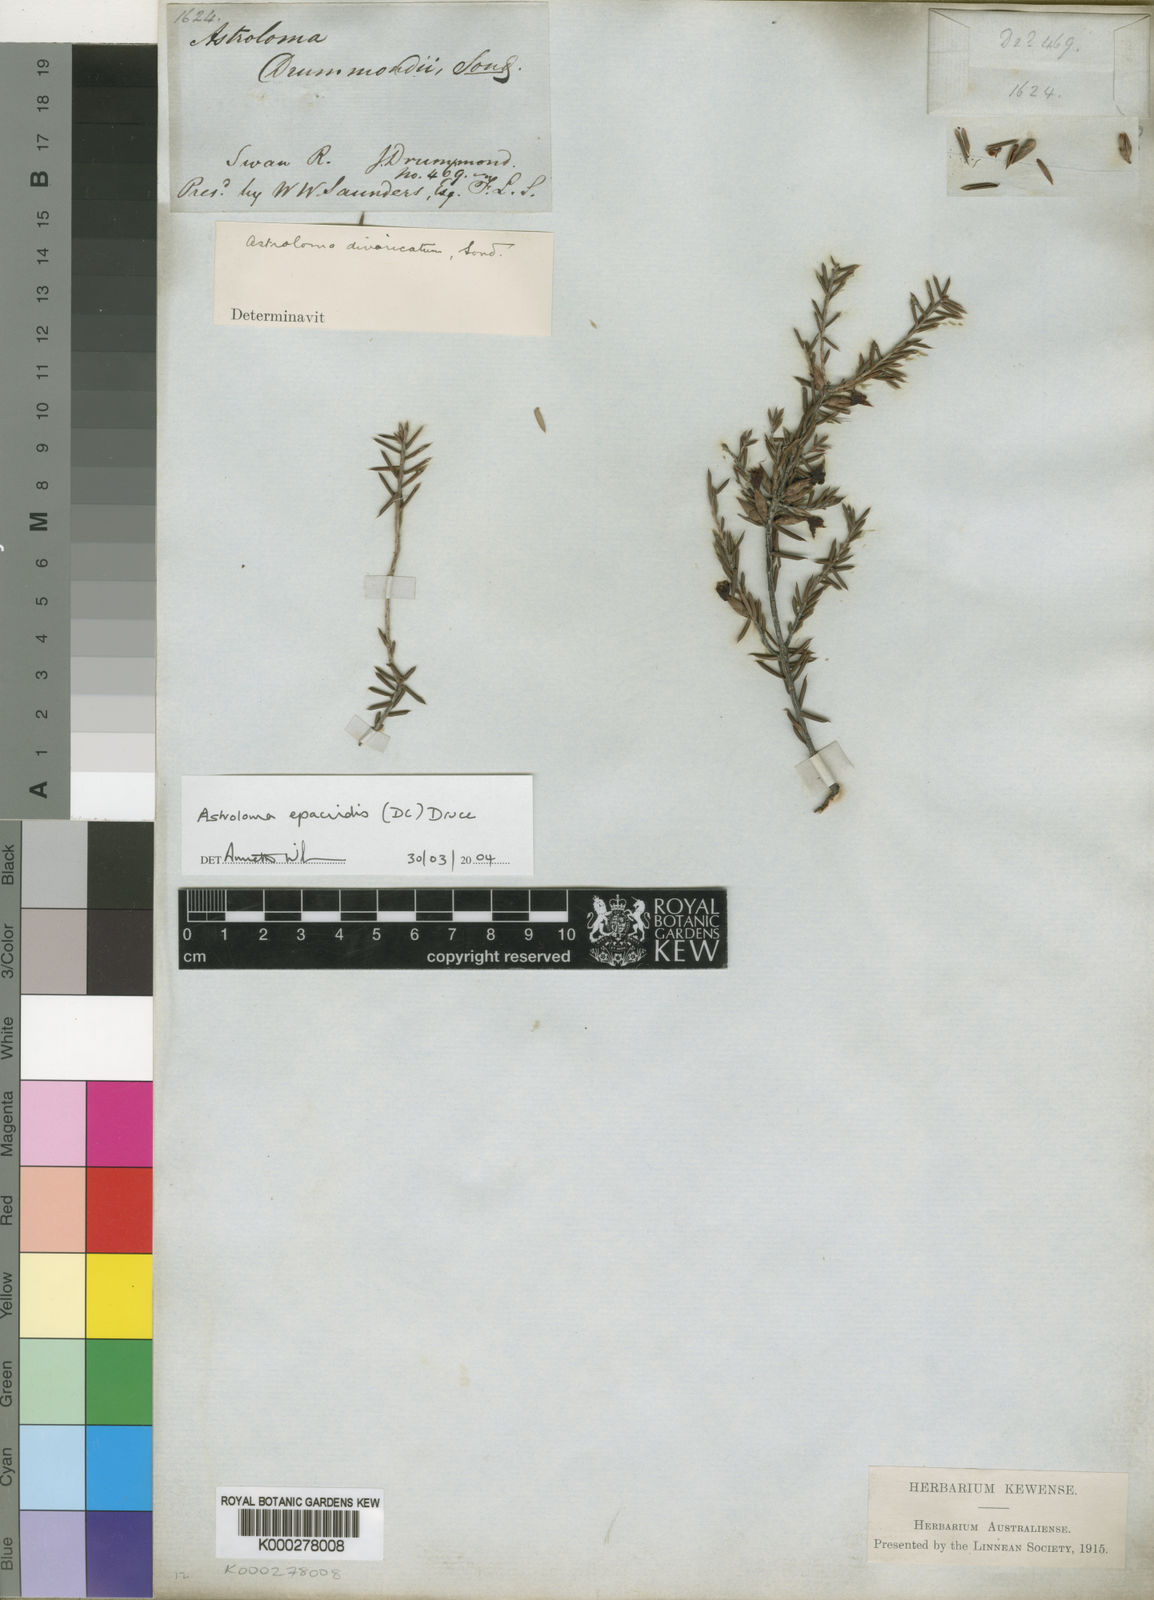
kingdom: Plantae
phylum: Tracheophyta
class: Magnoliopsida
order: Ericales
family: Ericaceae
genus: Styphelia
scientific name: Styphelia epacridis
